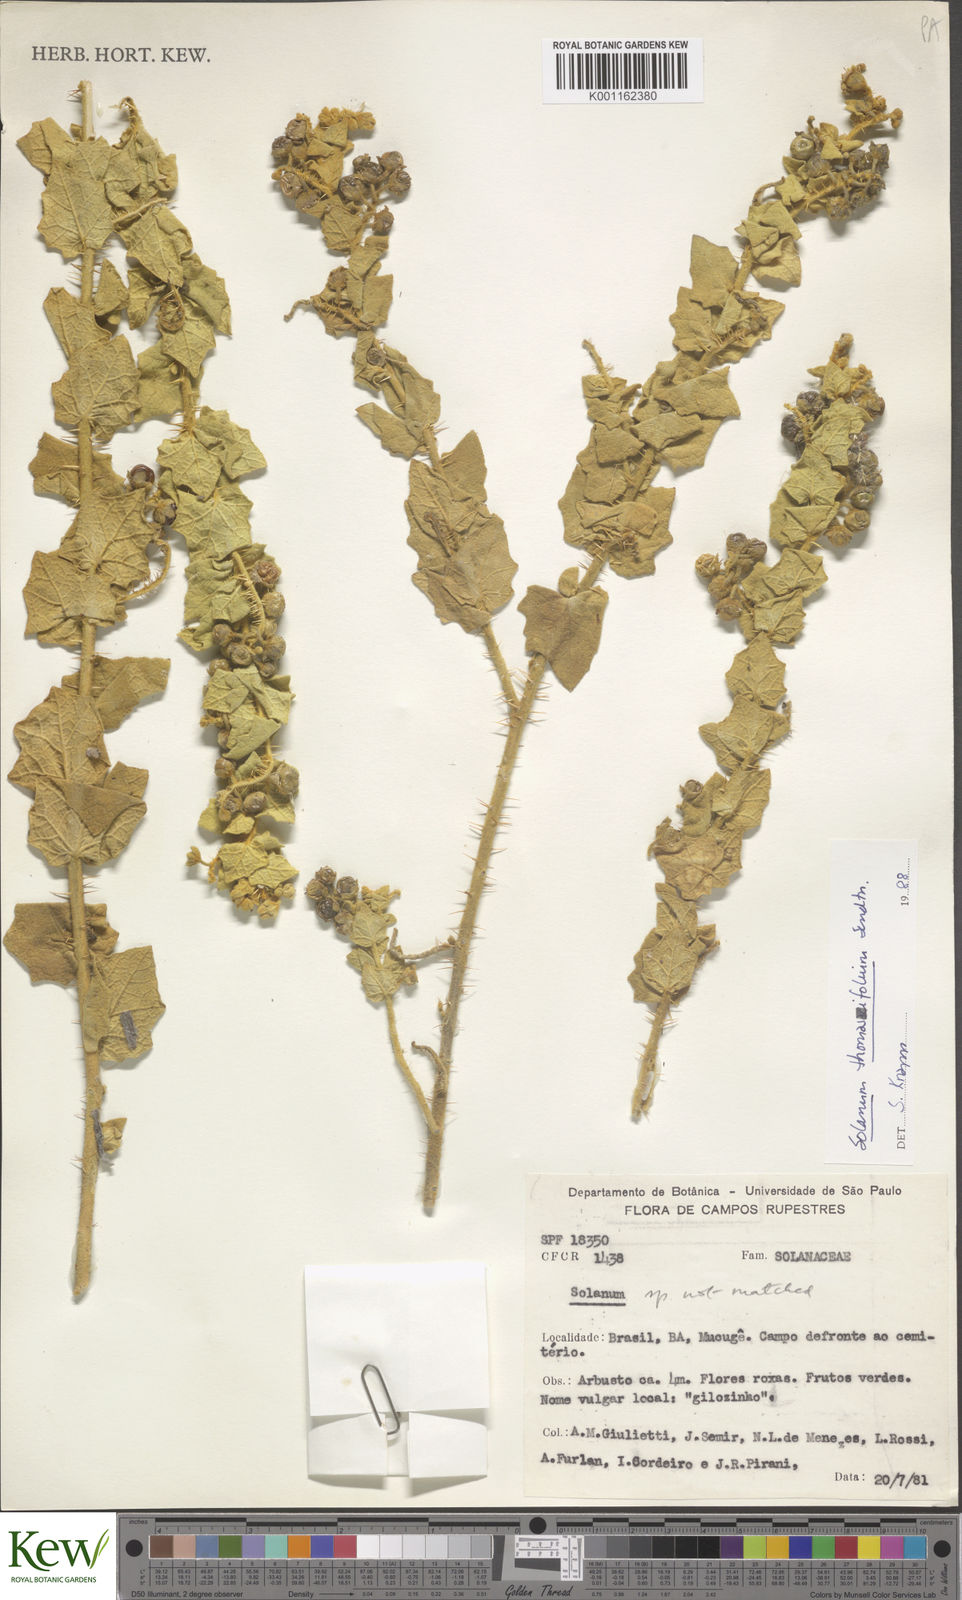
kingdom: Plantae
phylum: Tracheophyta
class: Magnoliopsida
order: Solanales
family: Solanaceae
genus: Solanum
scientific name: Solanum thomasiifolium
